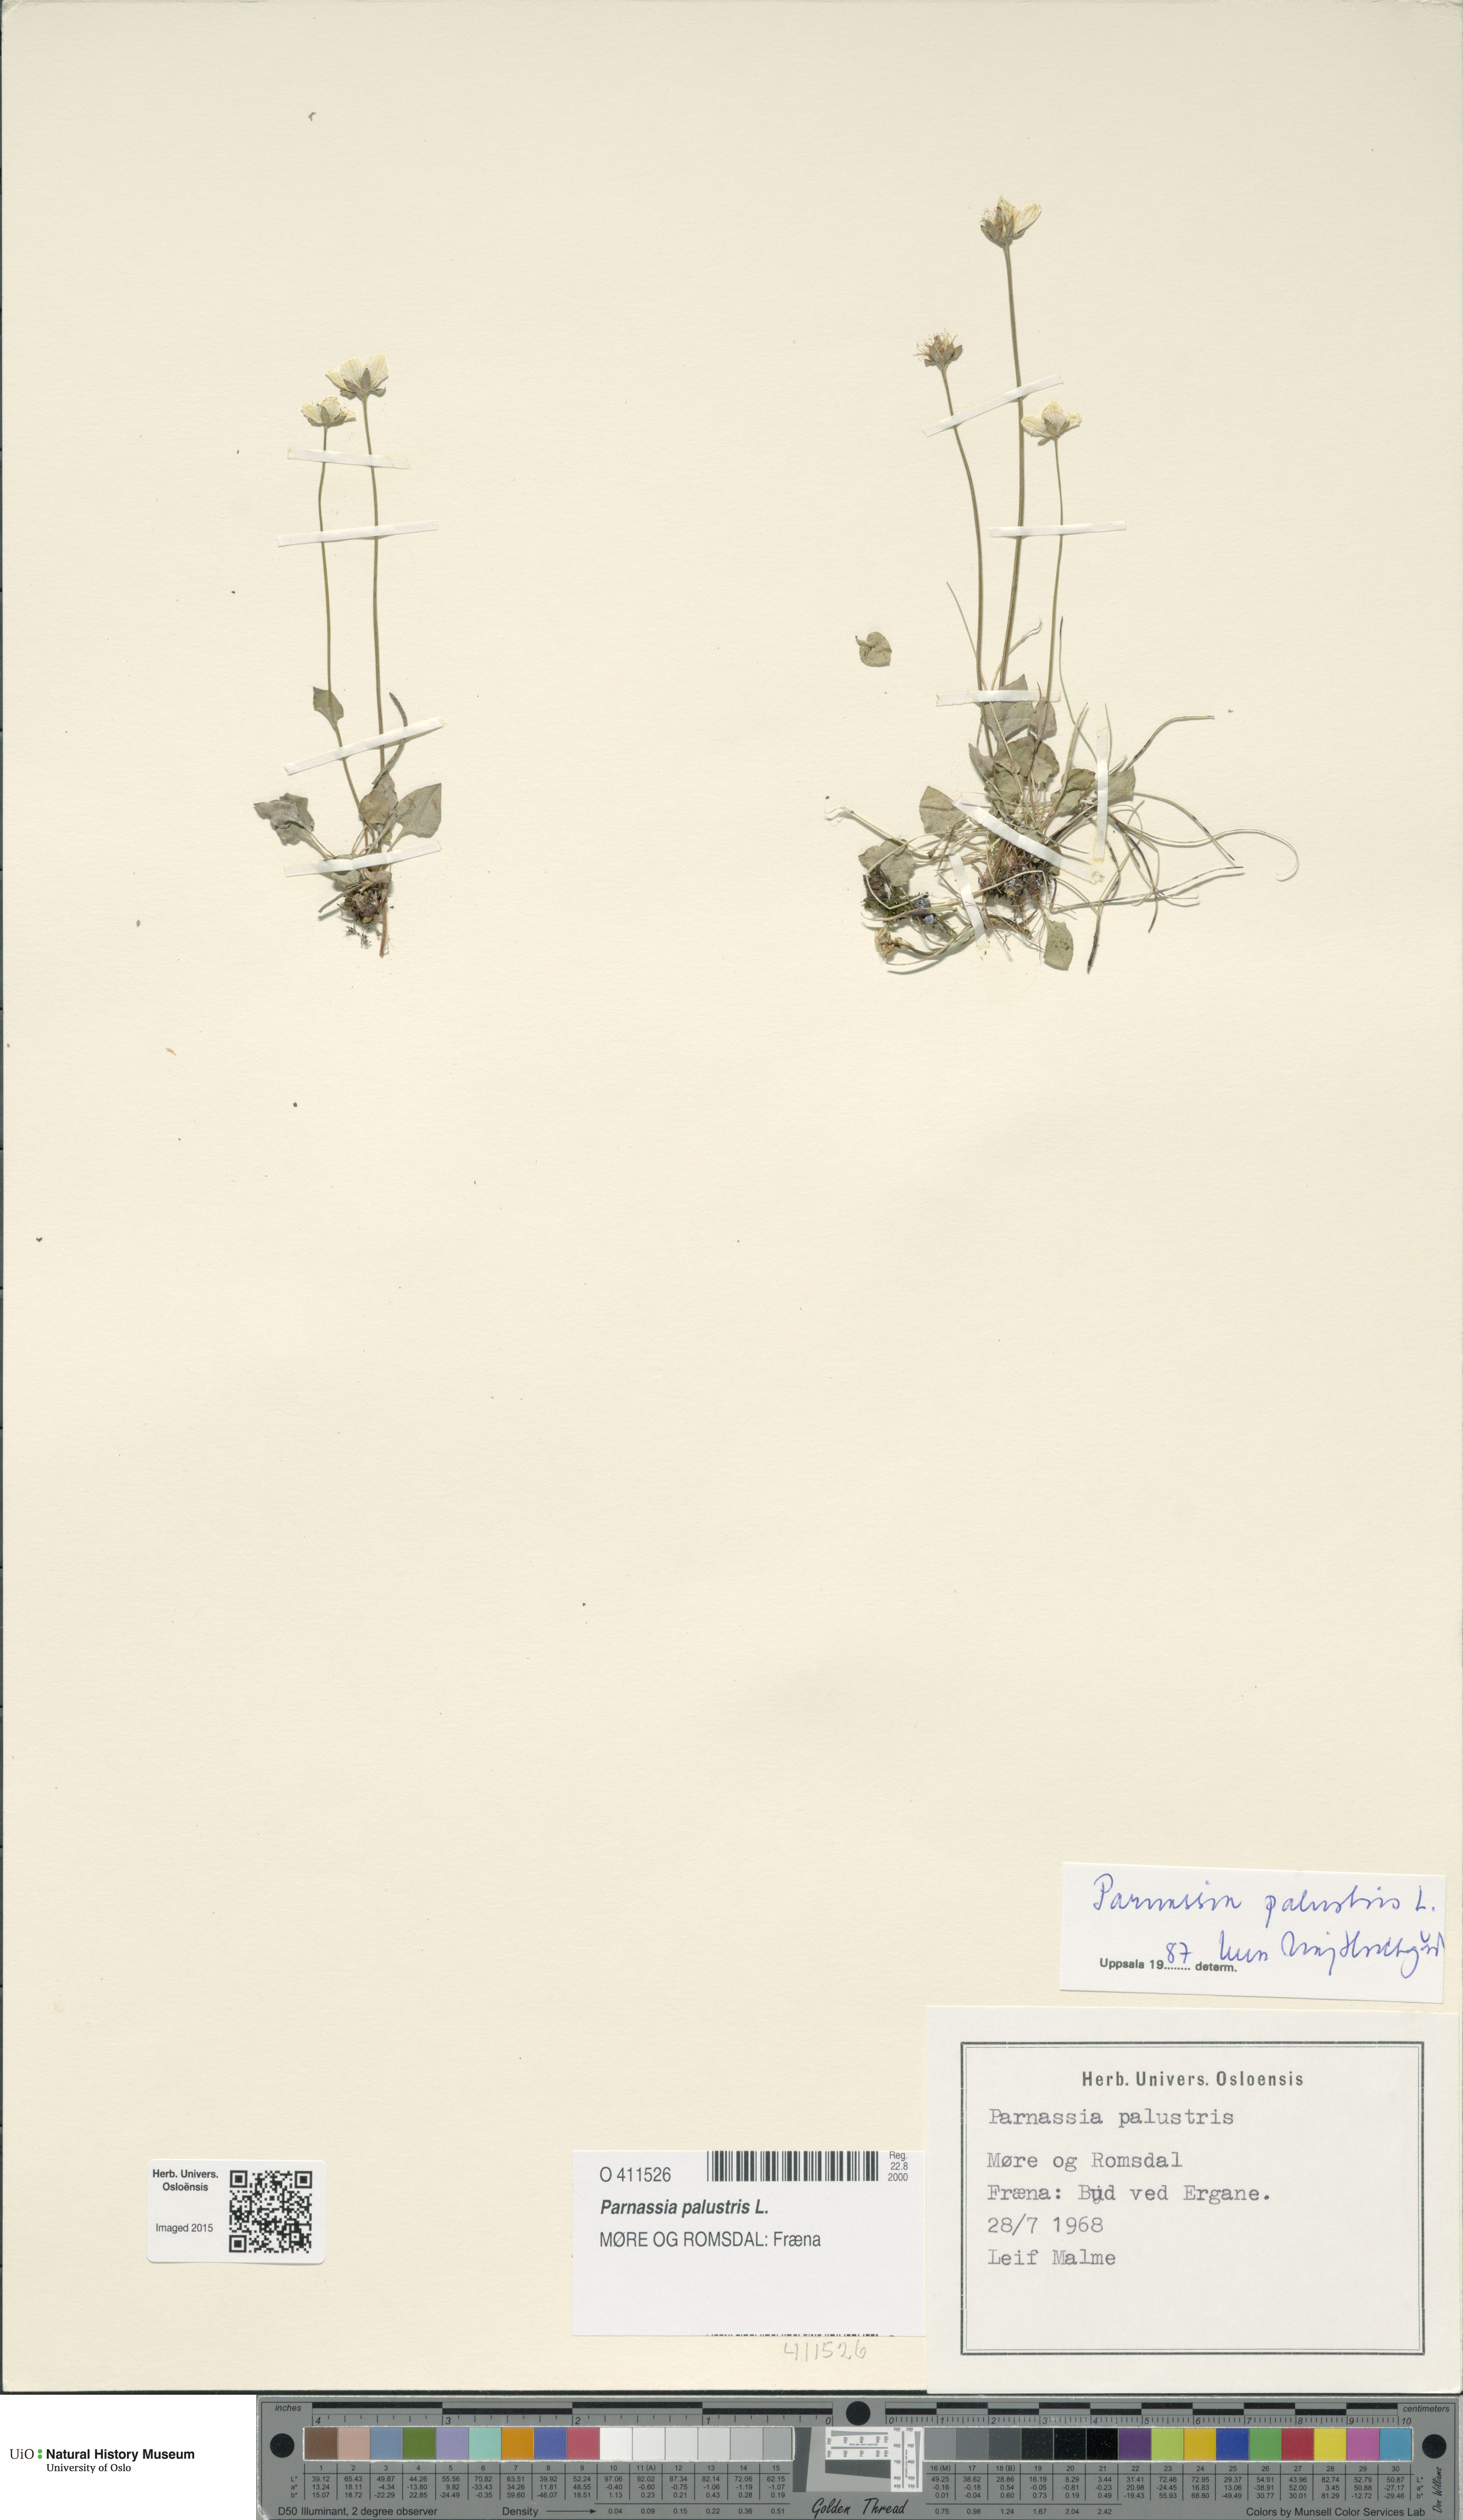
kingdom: Plantae
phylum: Tracheophyta
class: Magnoliopsida
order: Celastrales
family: Parnassiaceae
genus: Parnassia
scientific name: Parnassia palustris
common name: Grass-of-parnassus
